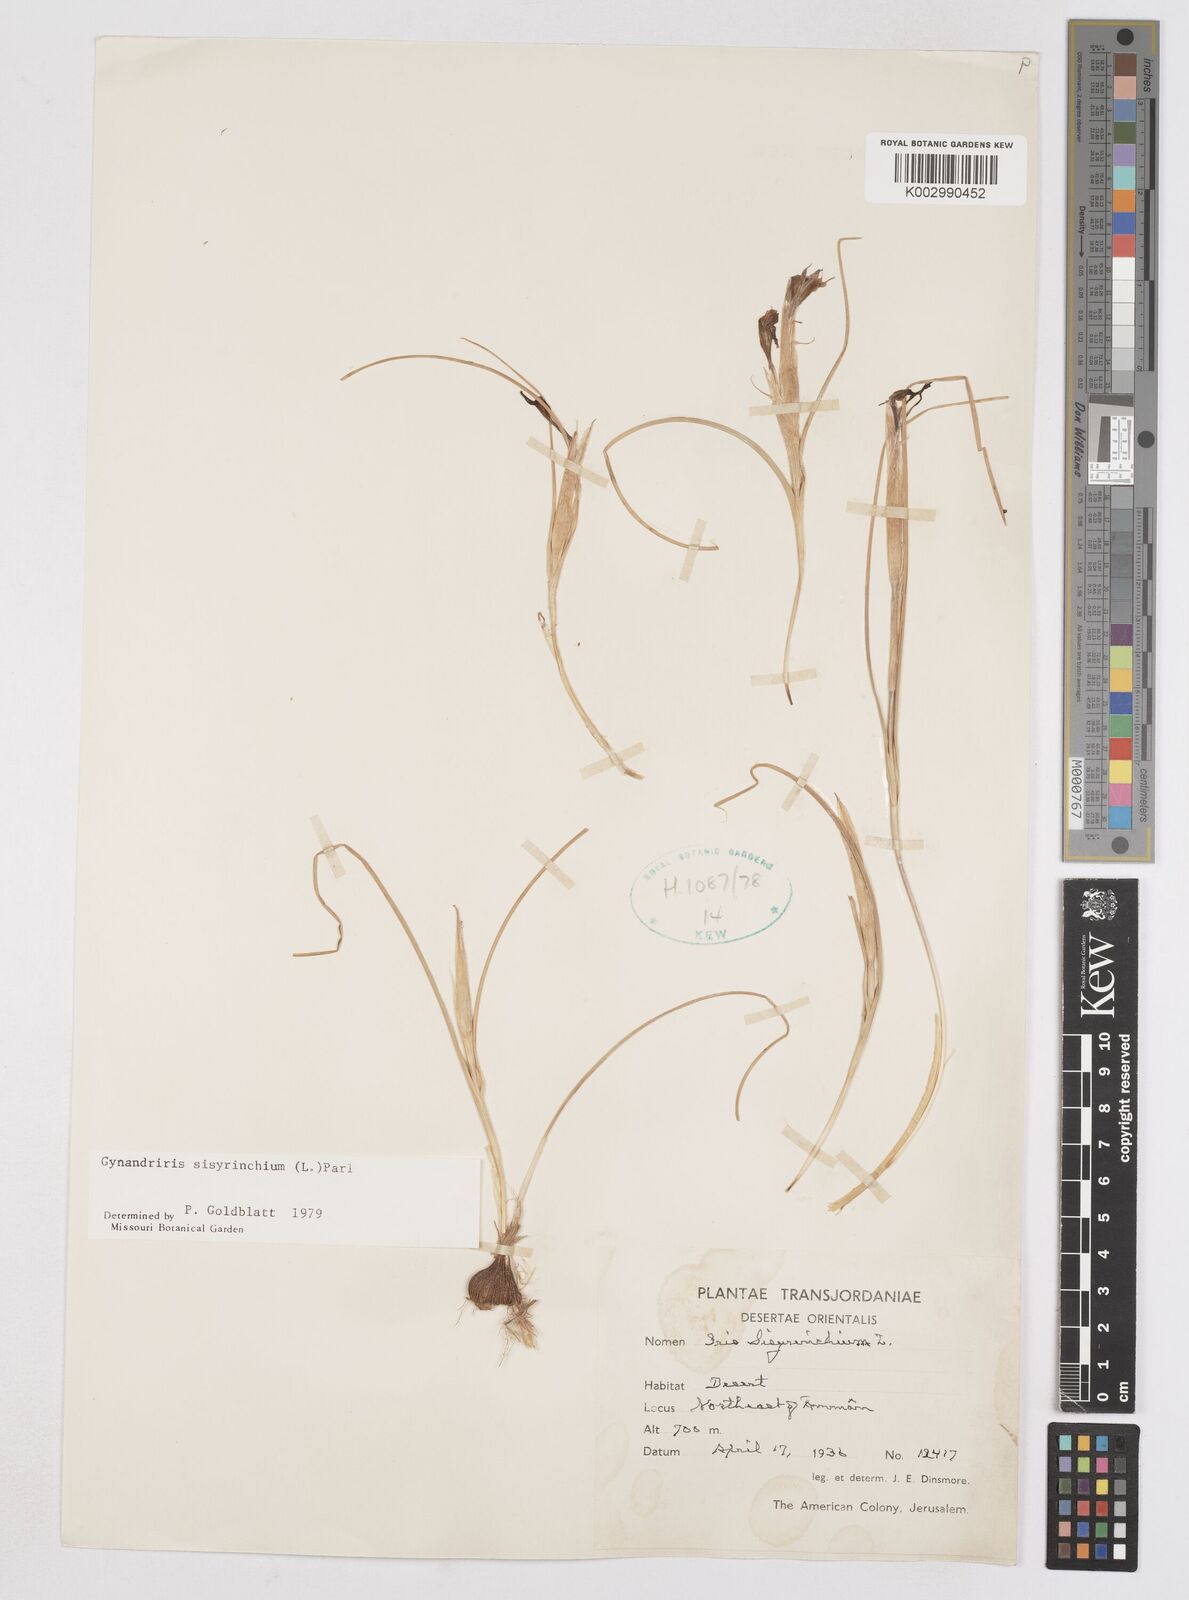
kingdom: Plantae
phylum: Tracheophyta
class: Liliopsida
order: Asparagales
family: Iridaceae
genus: Moraea
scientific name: Moraea sisyrinchium
